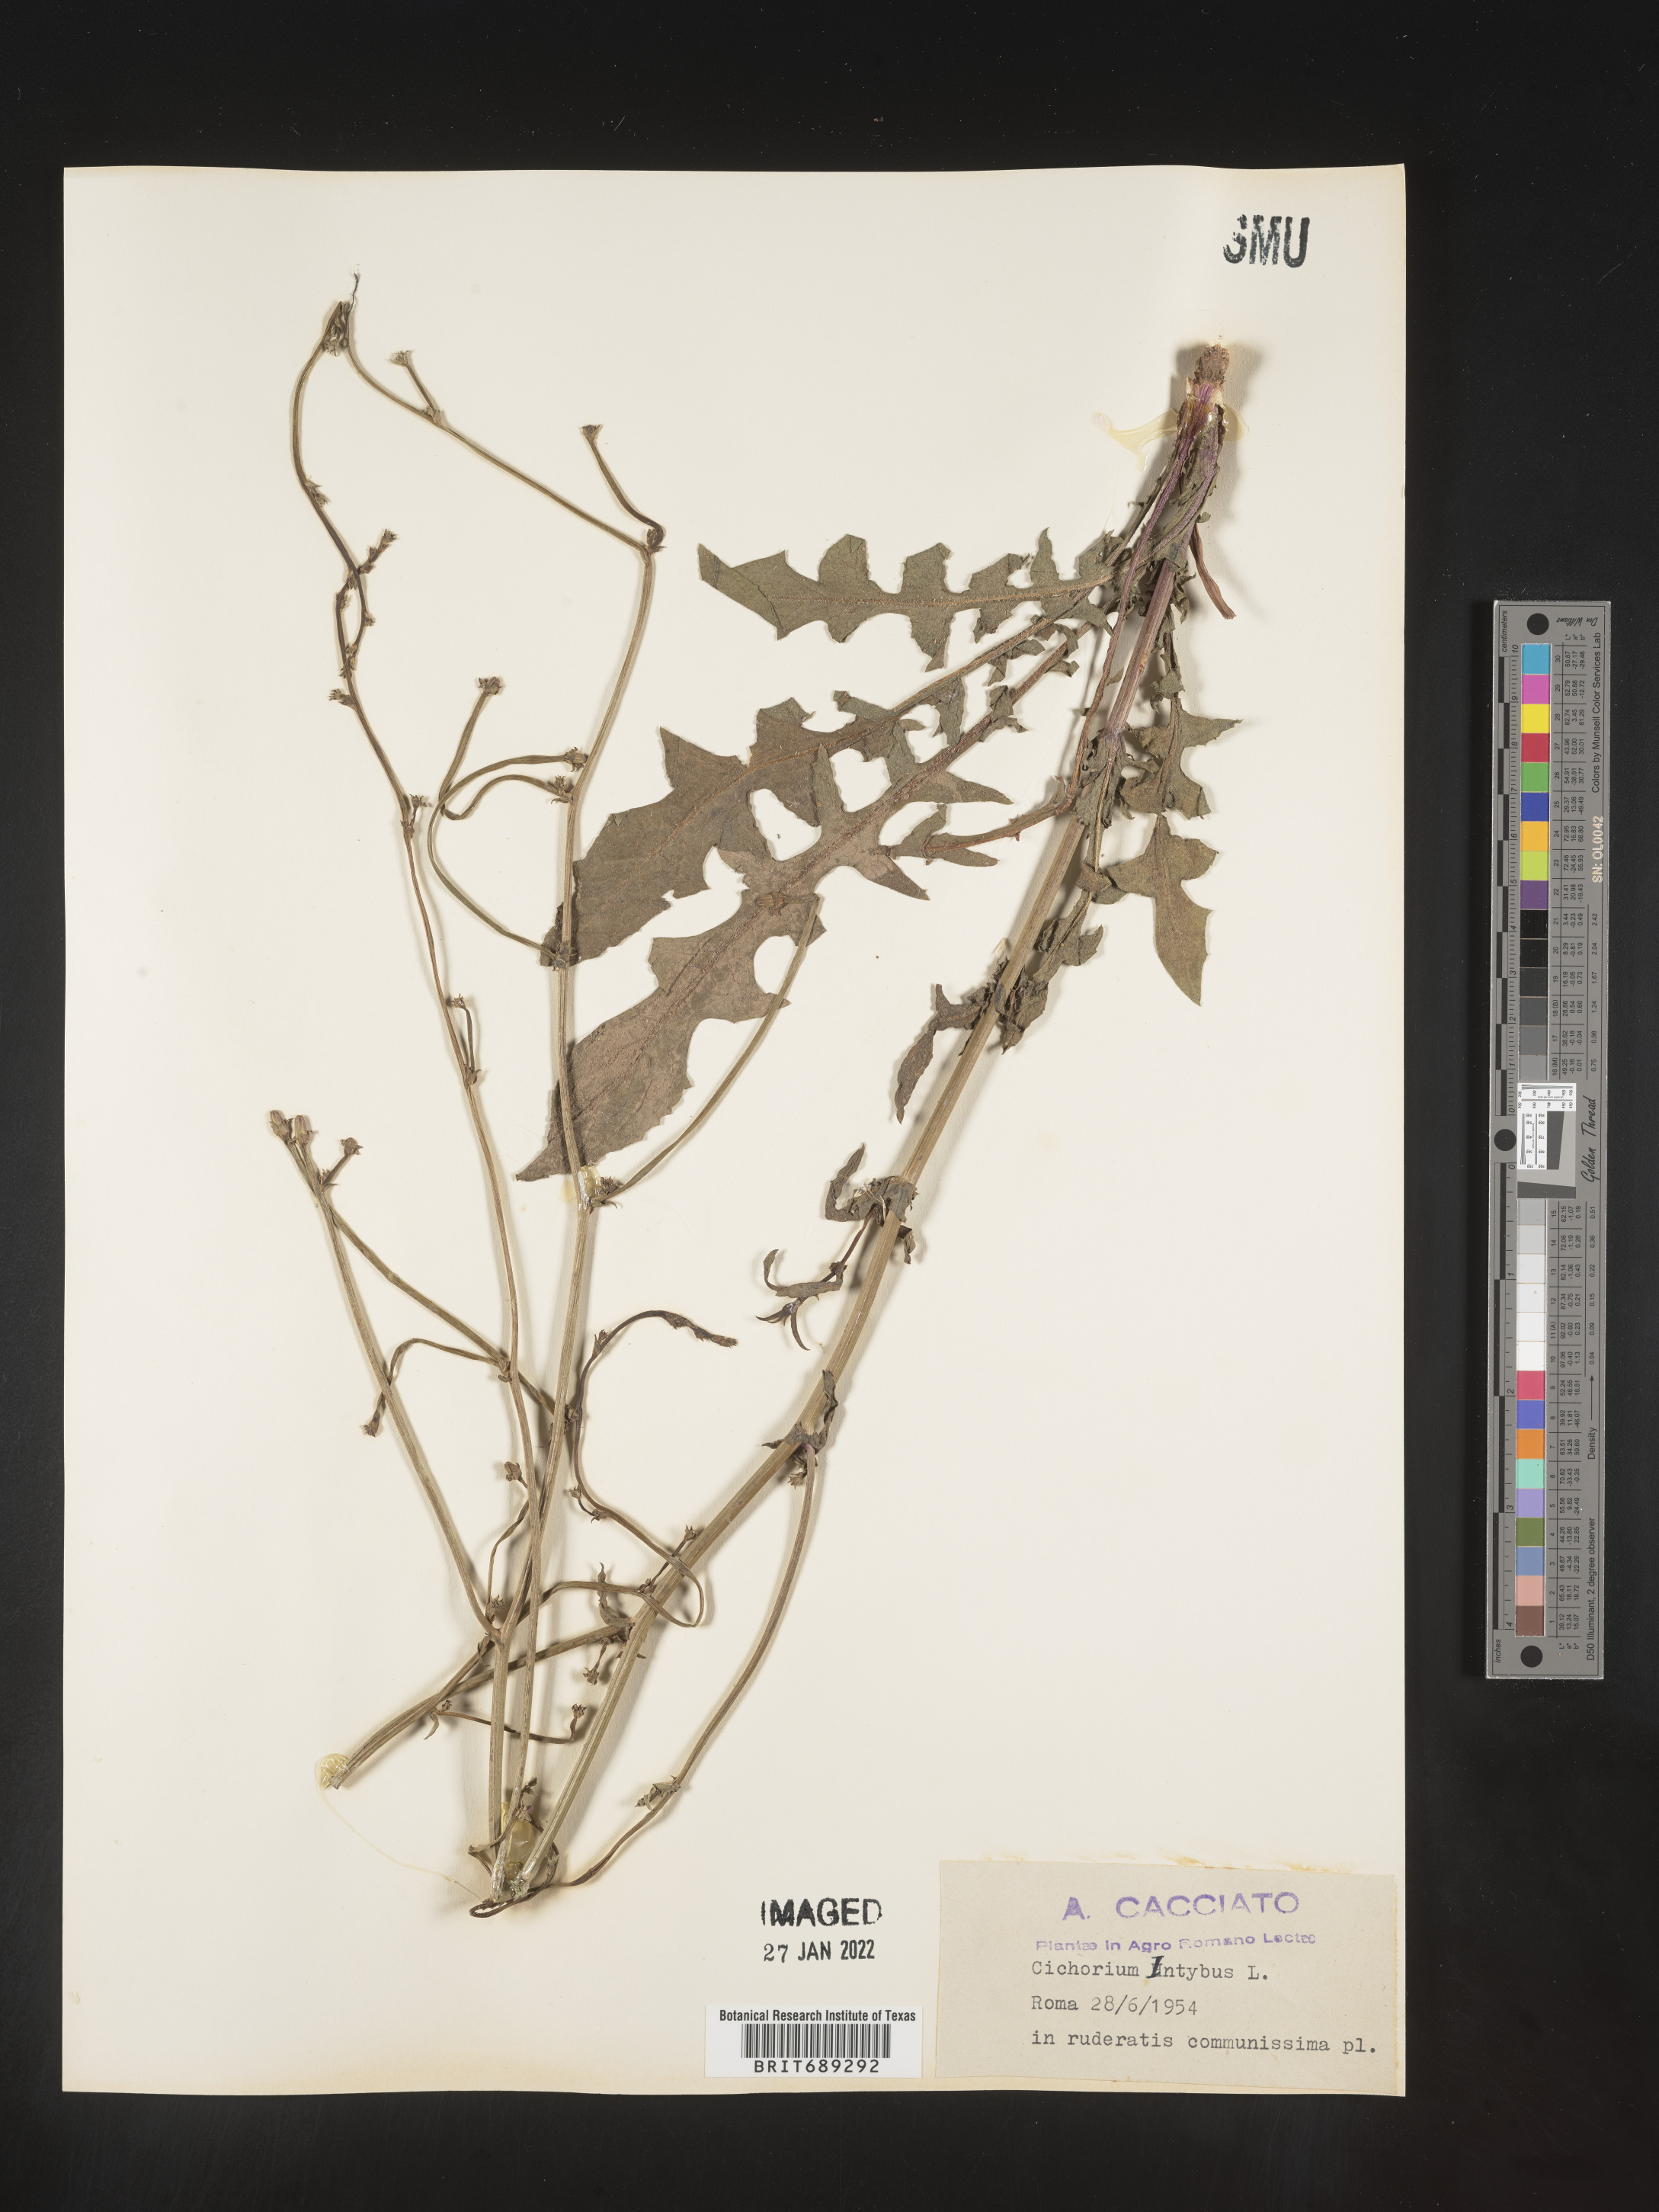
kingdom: Plantae
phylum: Tracheophyta
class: Magnoliopsida
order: Asterales
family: Asteraceae
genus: Cichorium
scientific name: Cichorium
